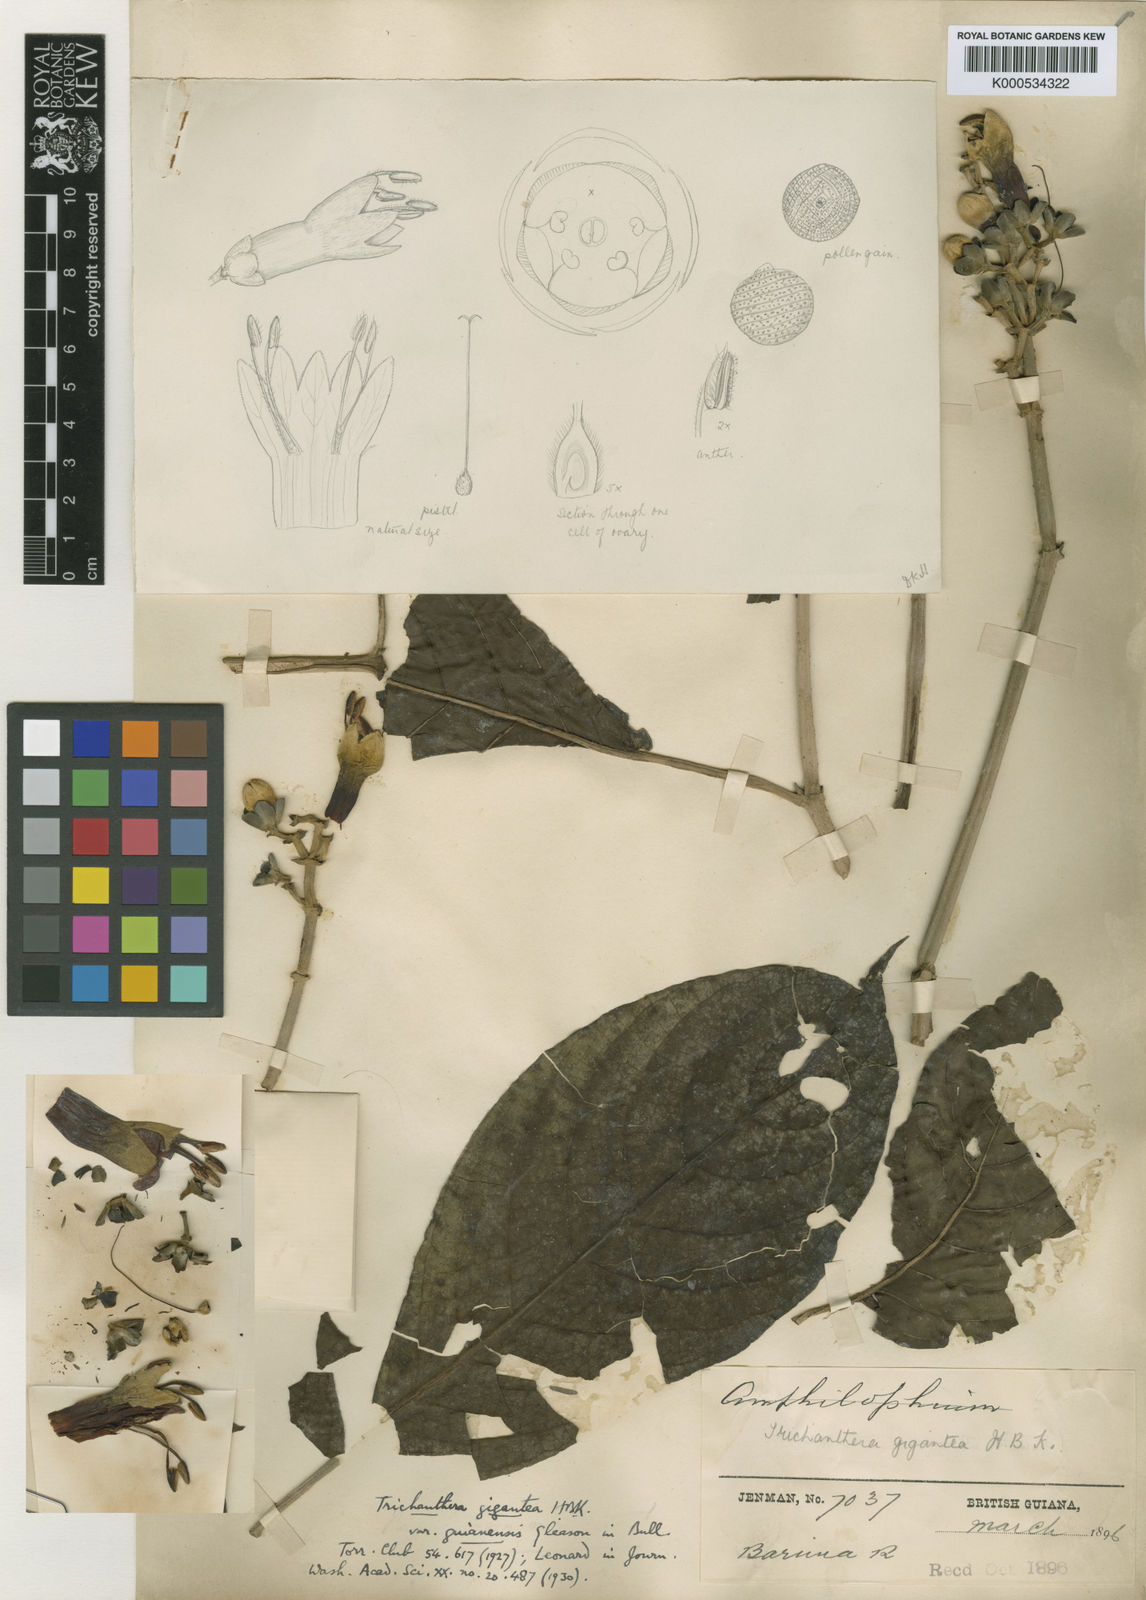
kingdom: Plantae
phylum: Tracheophyta
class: Magnoliopsida
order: Lamiales
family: Acanthaceae
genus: Trichanthera
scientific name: Trichanthera gigantea
